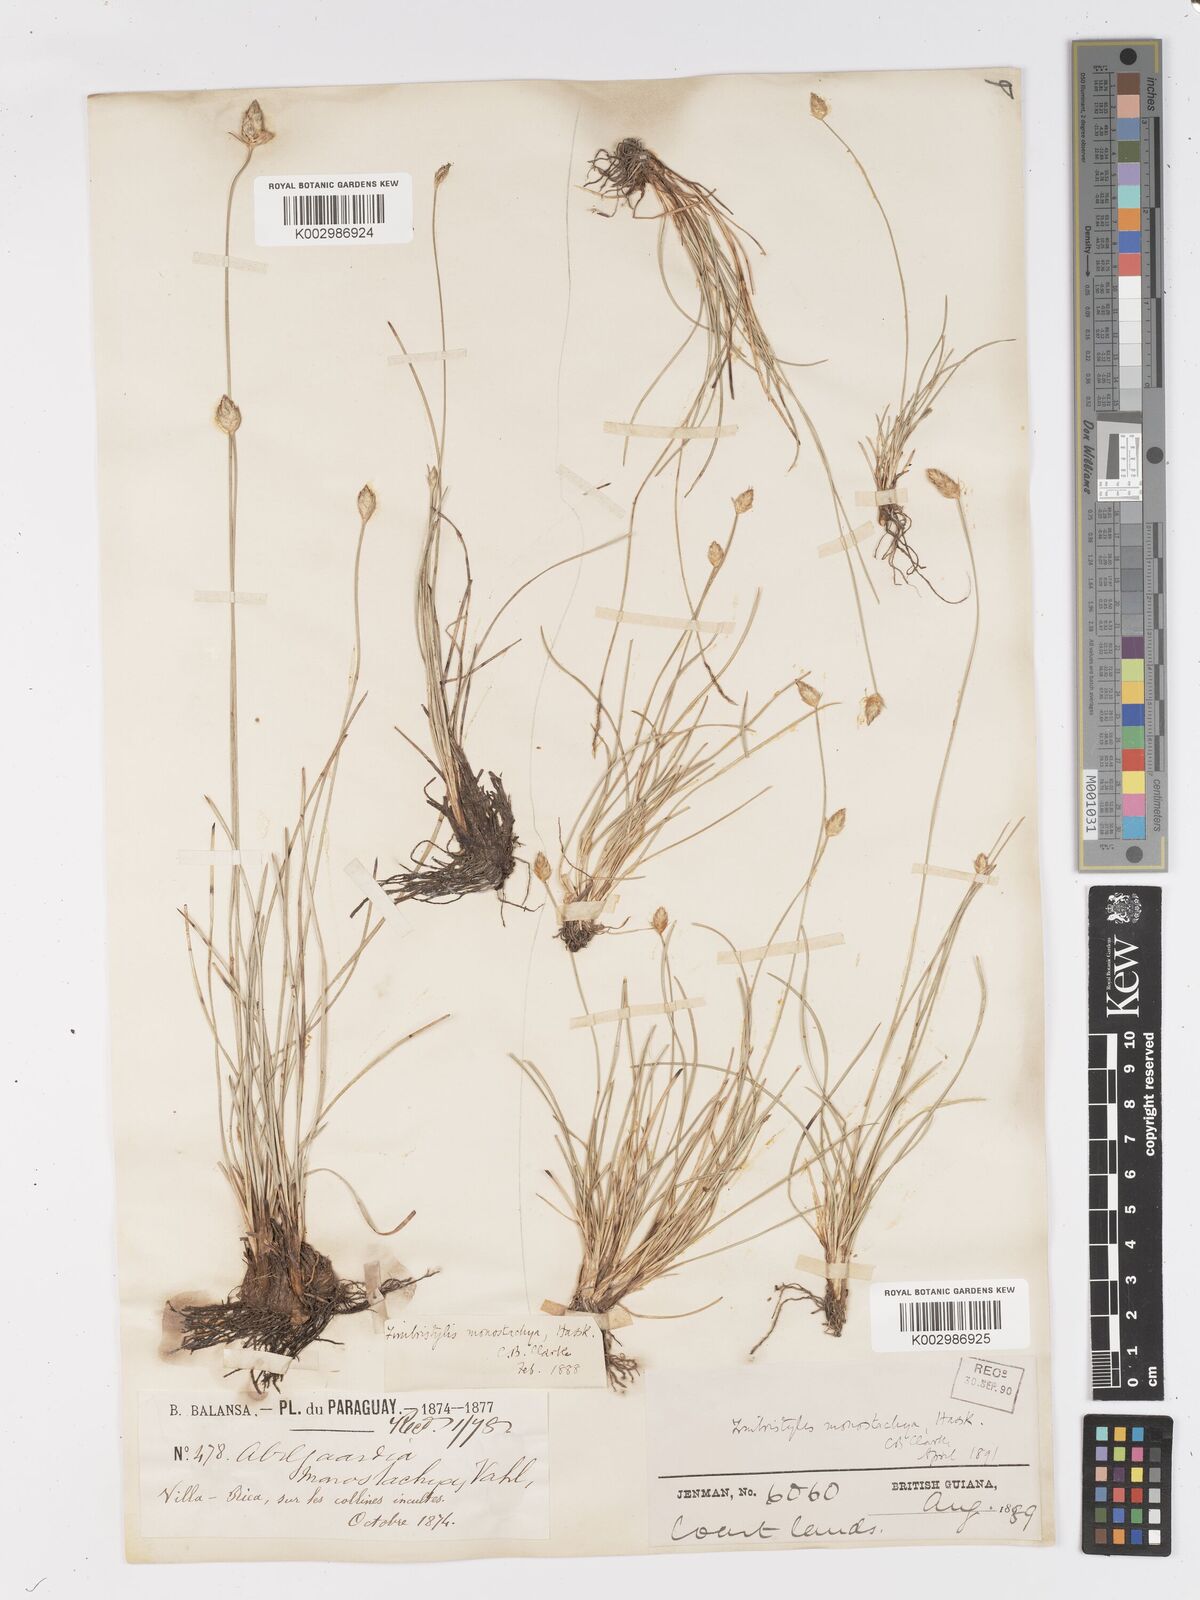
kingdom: Plantae
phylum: Tracheophyta
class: Liliopsida
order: Poales
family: Cyperaceae
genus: Abildgaardia
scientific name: Abildgaardia ovata
